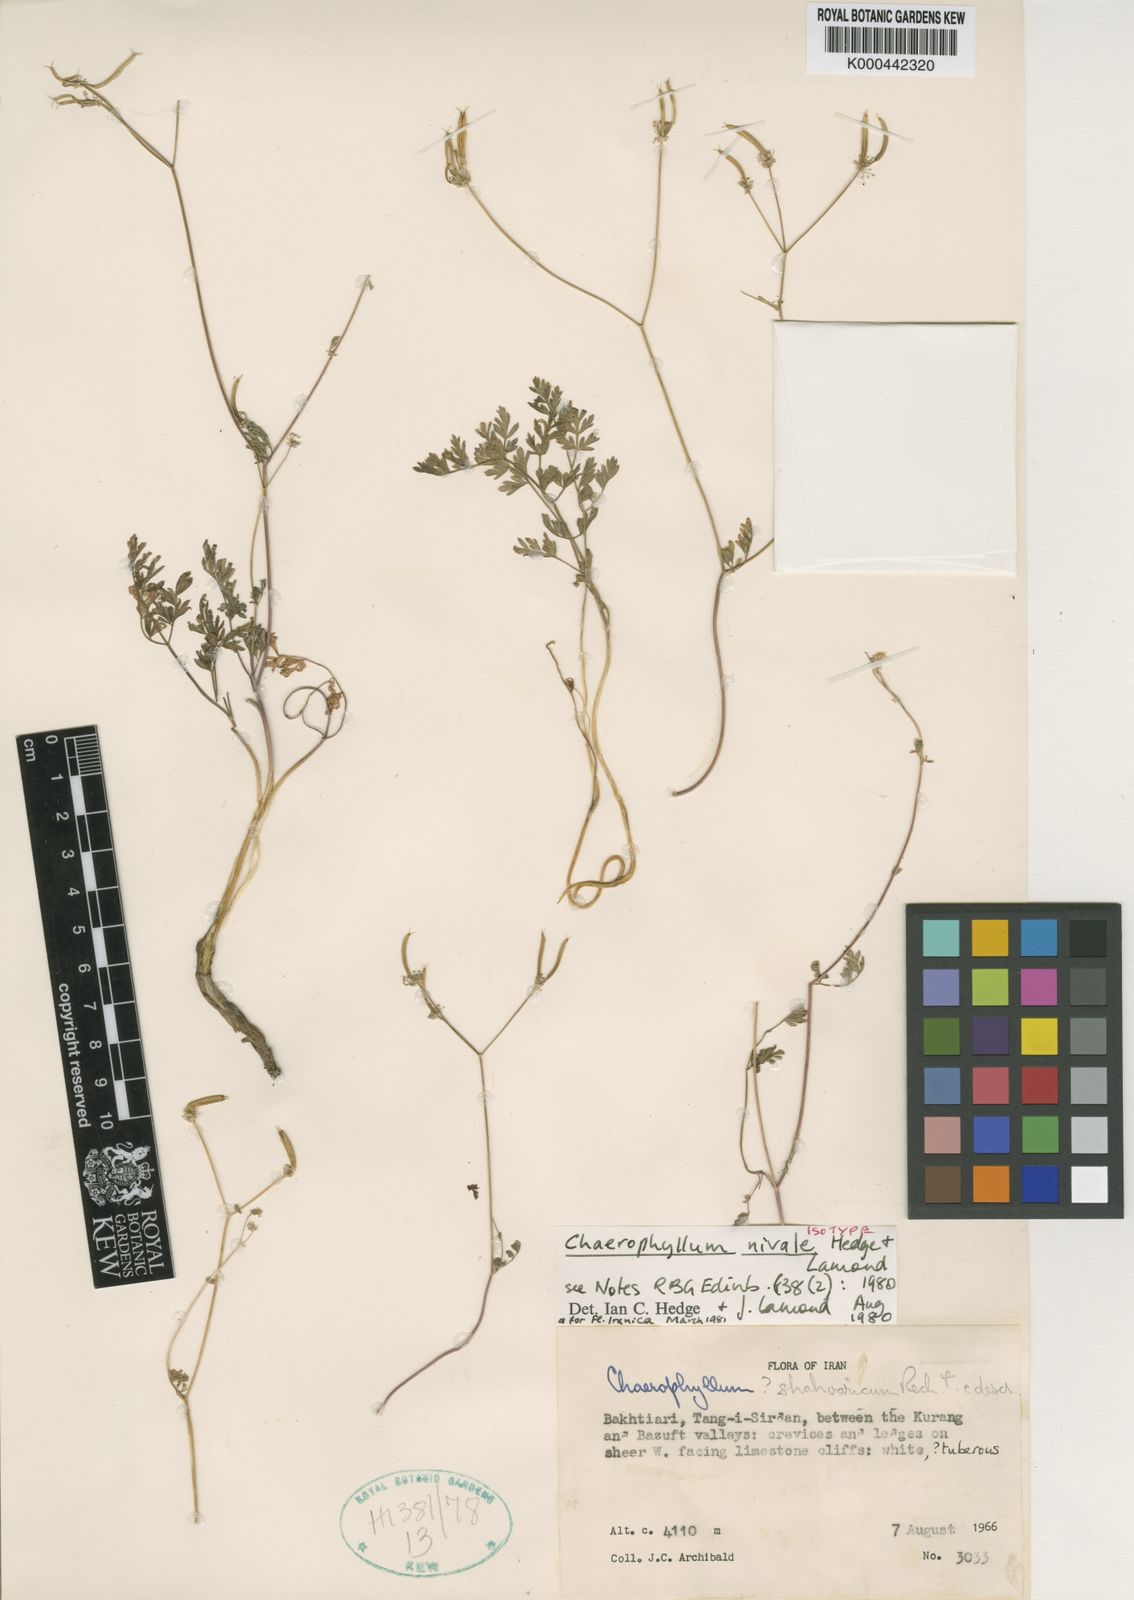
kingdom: Plantae
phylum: Tracheophyta
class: Magnoliopsida
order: Apiales
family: Apiaceae
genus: Chaerophyllum
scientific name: Chaerophyllum nivale
